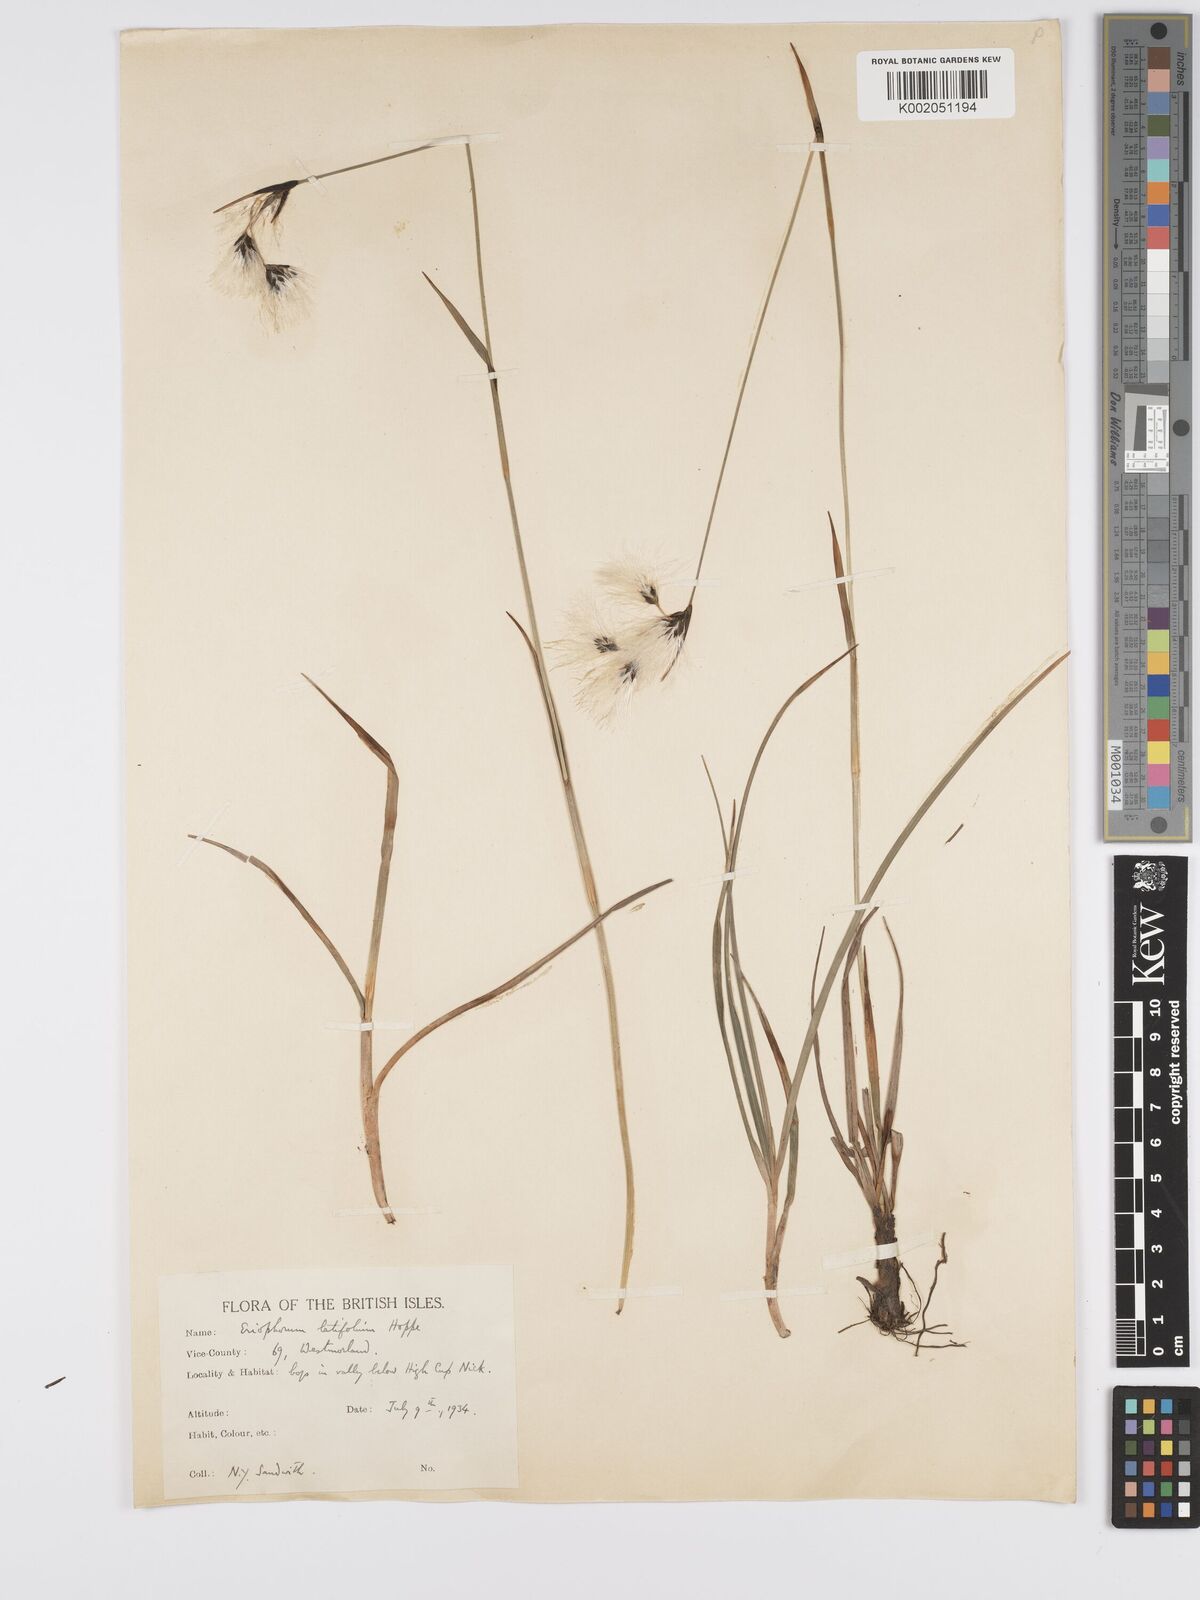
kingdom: Plantae
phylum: Tracheophyta
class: Liliopsida
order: Poales
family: Cyperaceae
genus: Eriophorum
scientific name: Eriophorum latifolium
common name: Broad-leaved cottongrass
